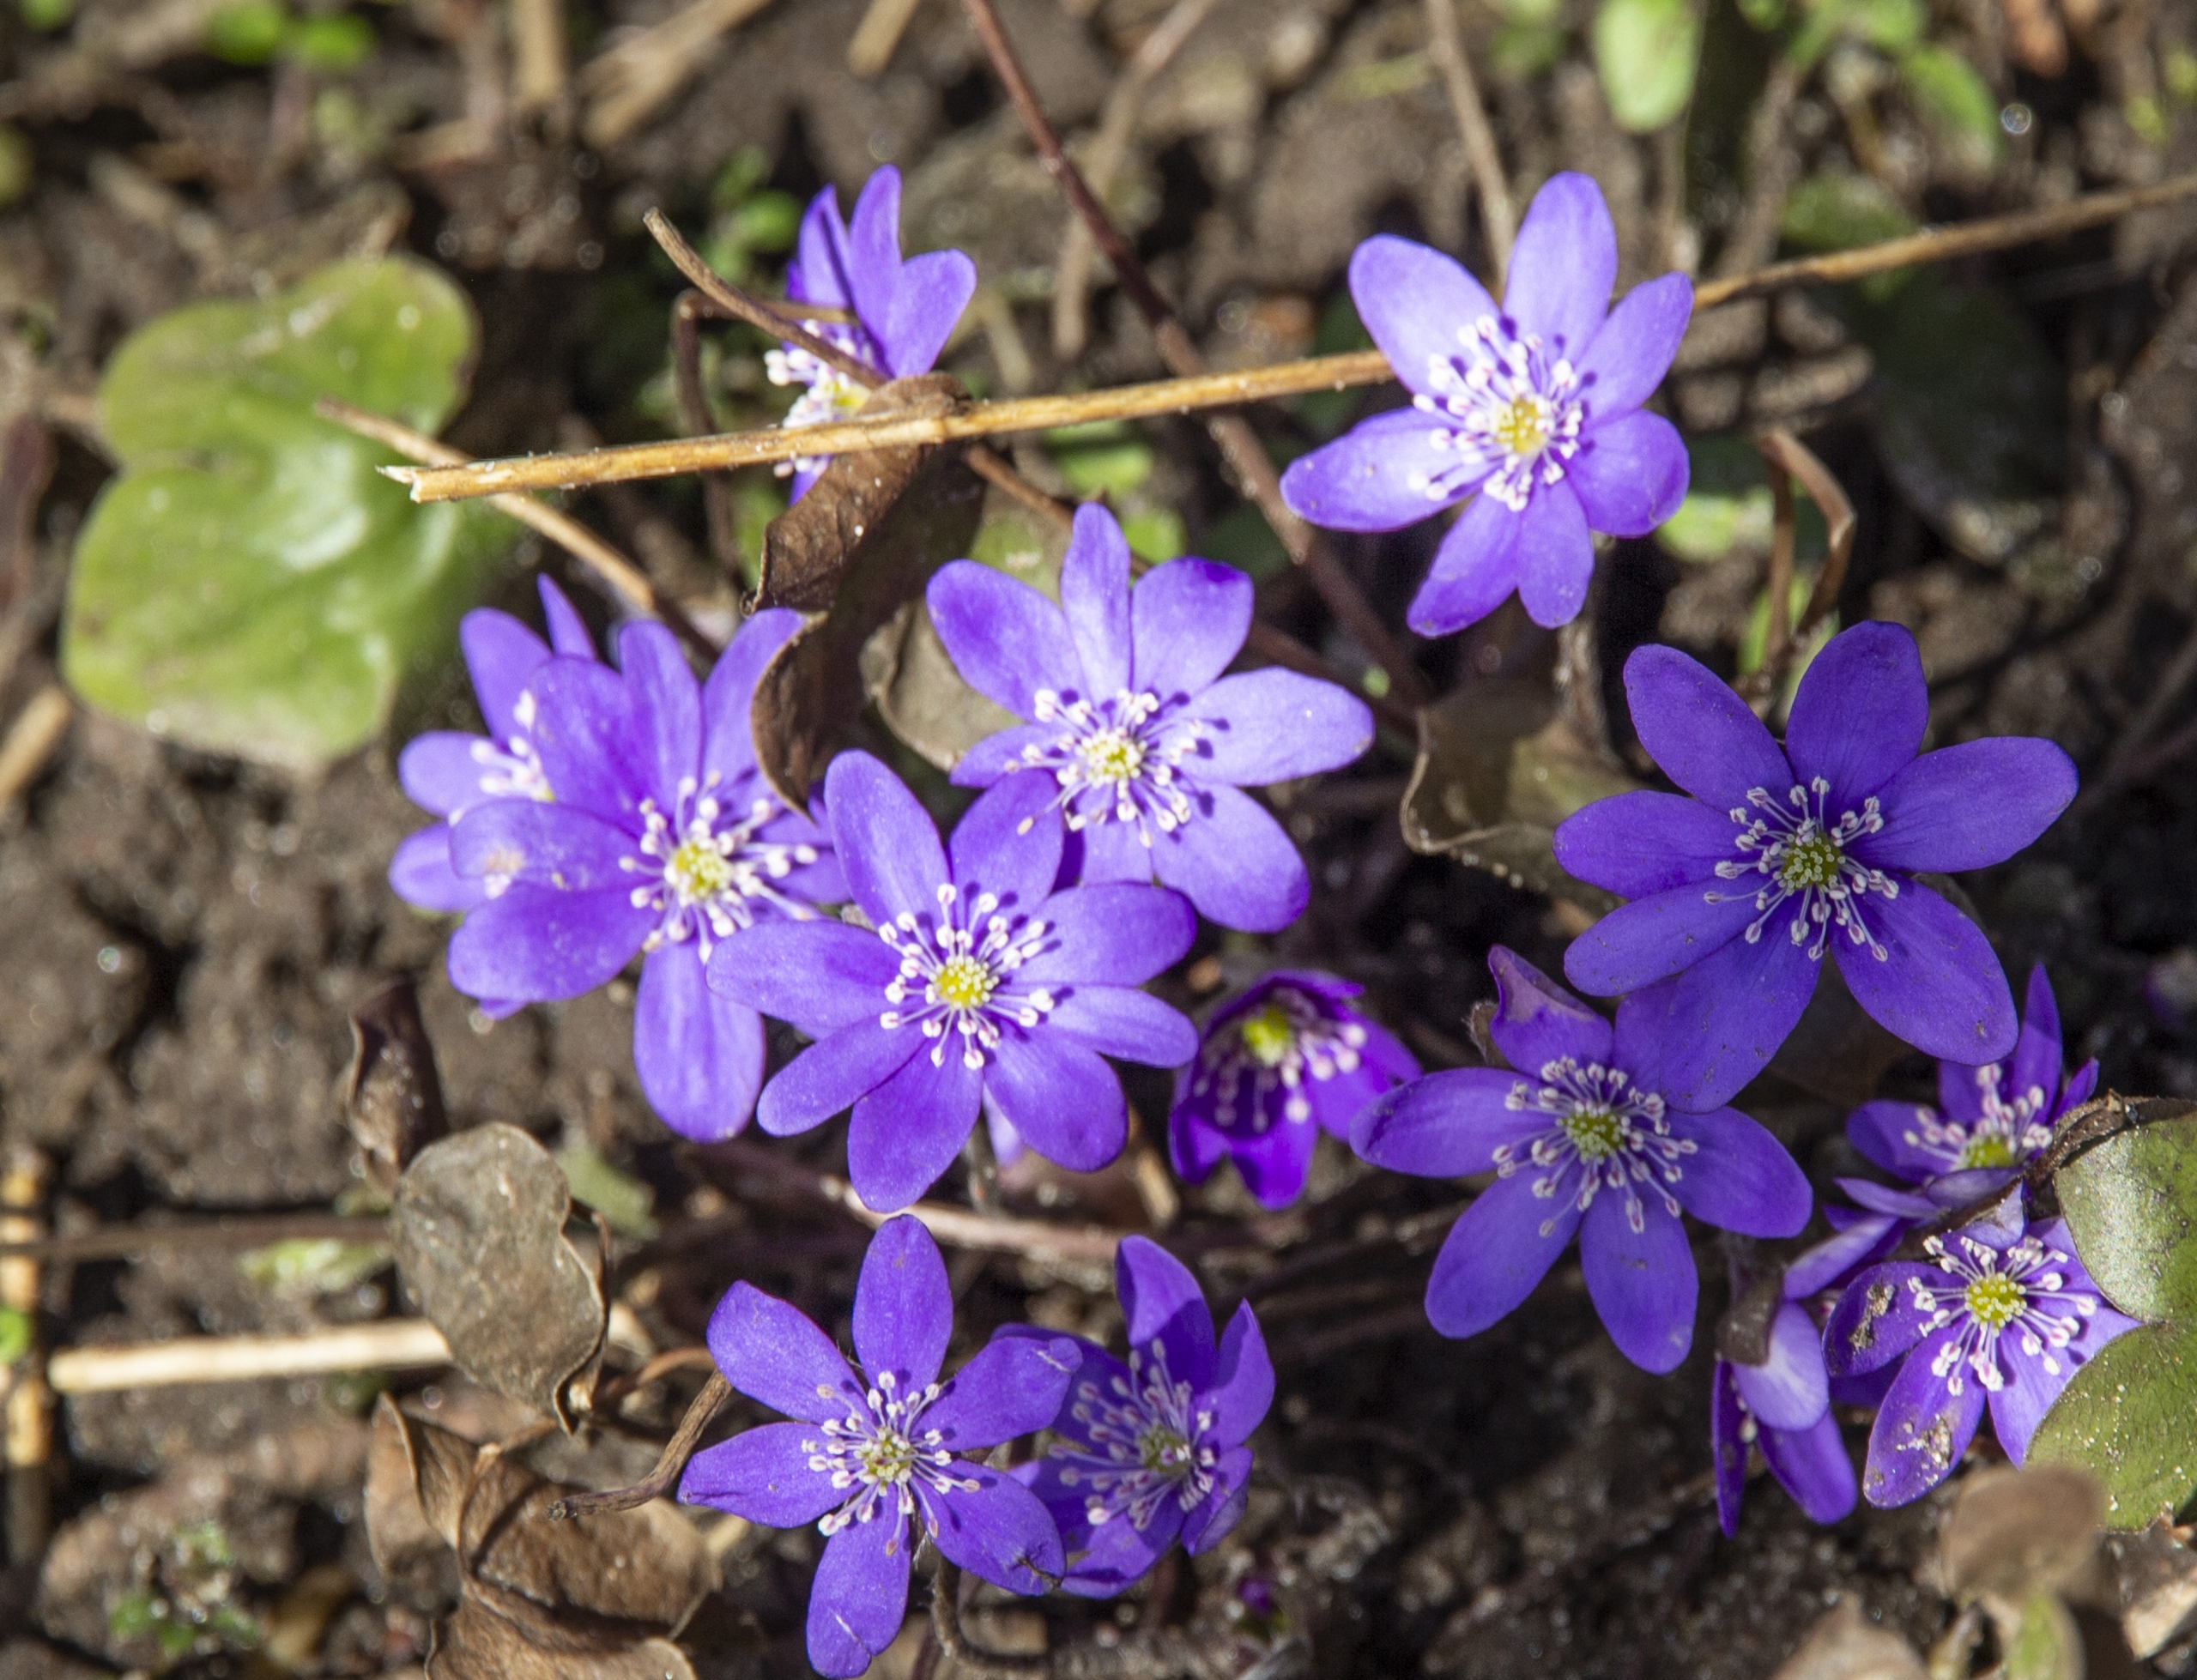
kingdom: Plantae
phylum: Tracheophyta
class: Magnoliopsida
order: Ranunculales
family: Ranunculaceae
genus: Hepatica
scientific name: Hepatica nobilis
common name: Blå anemone
